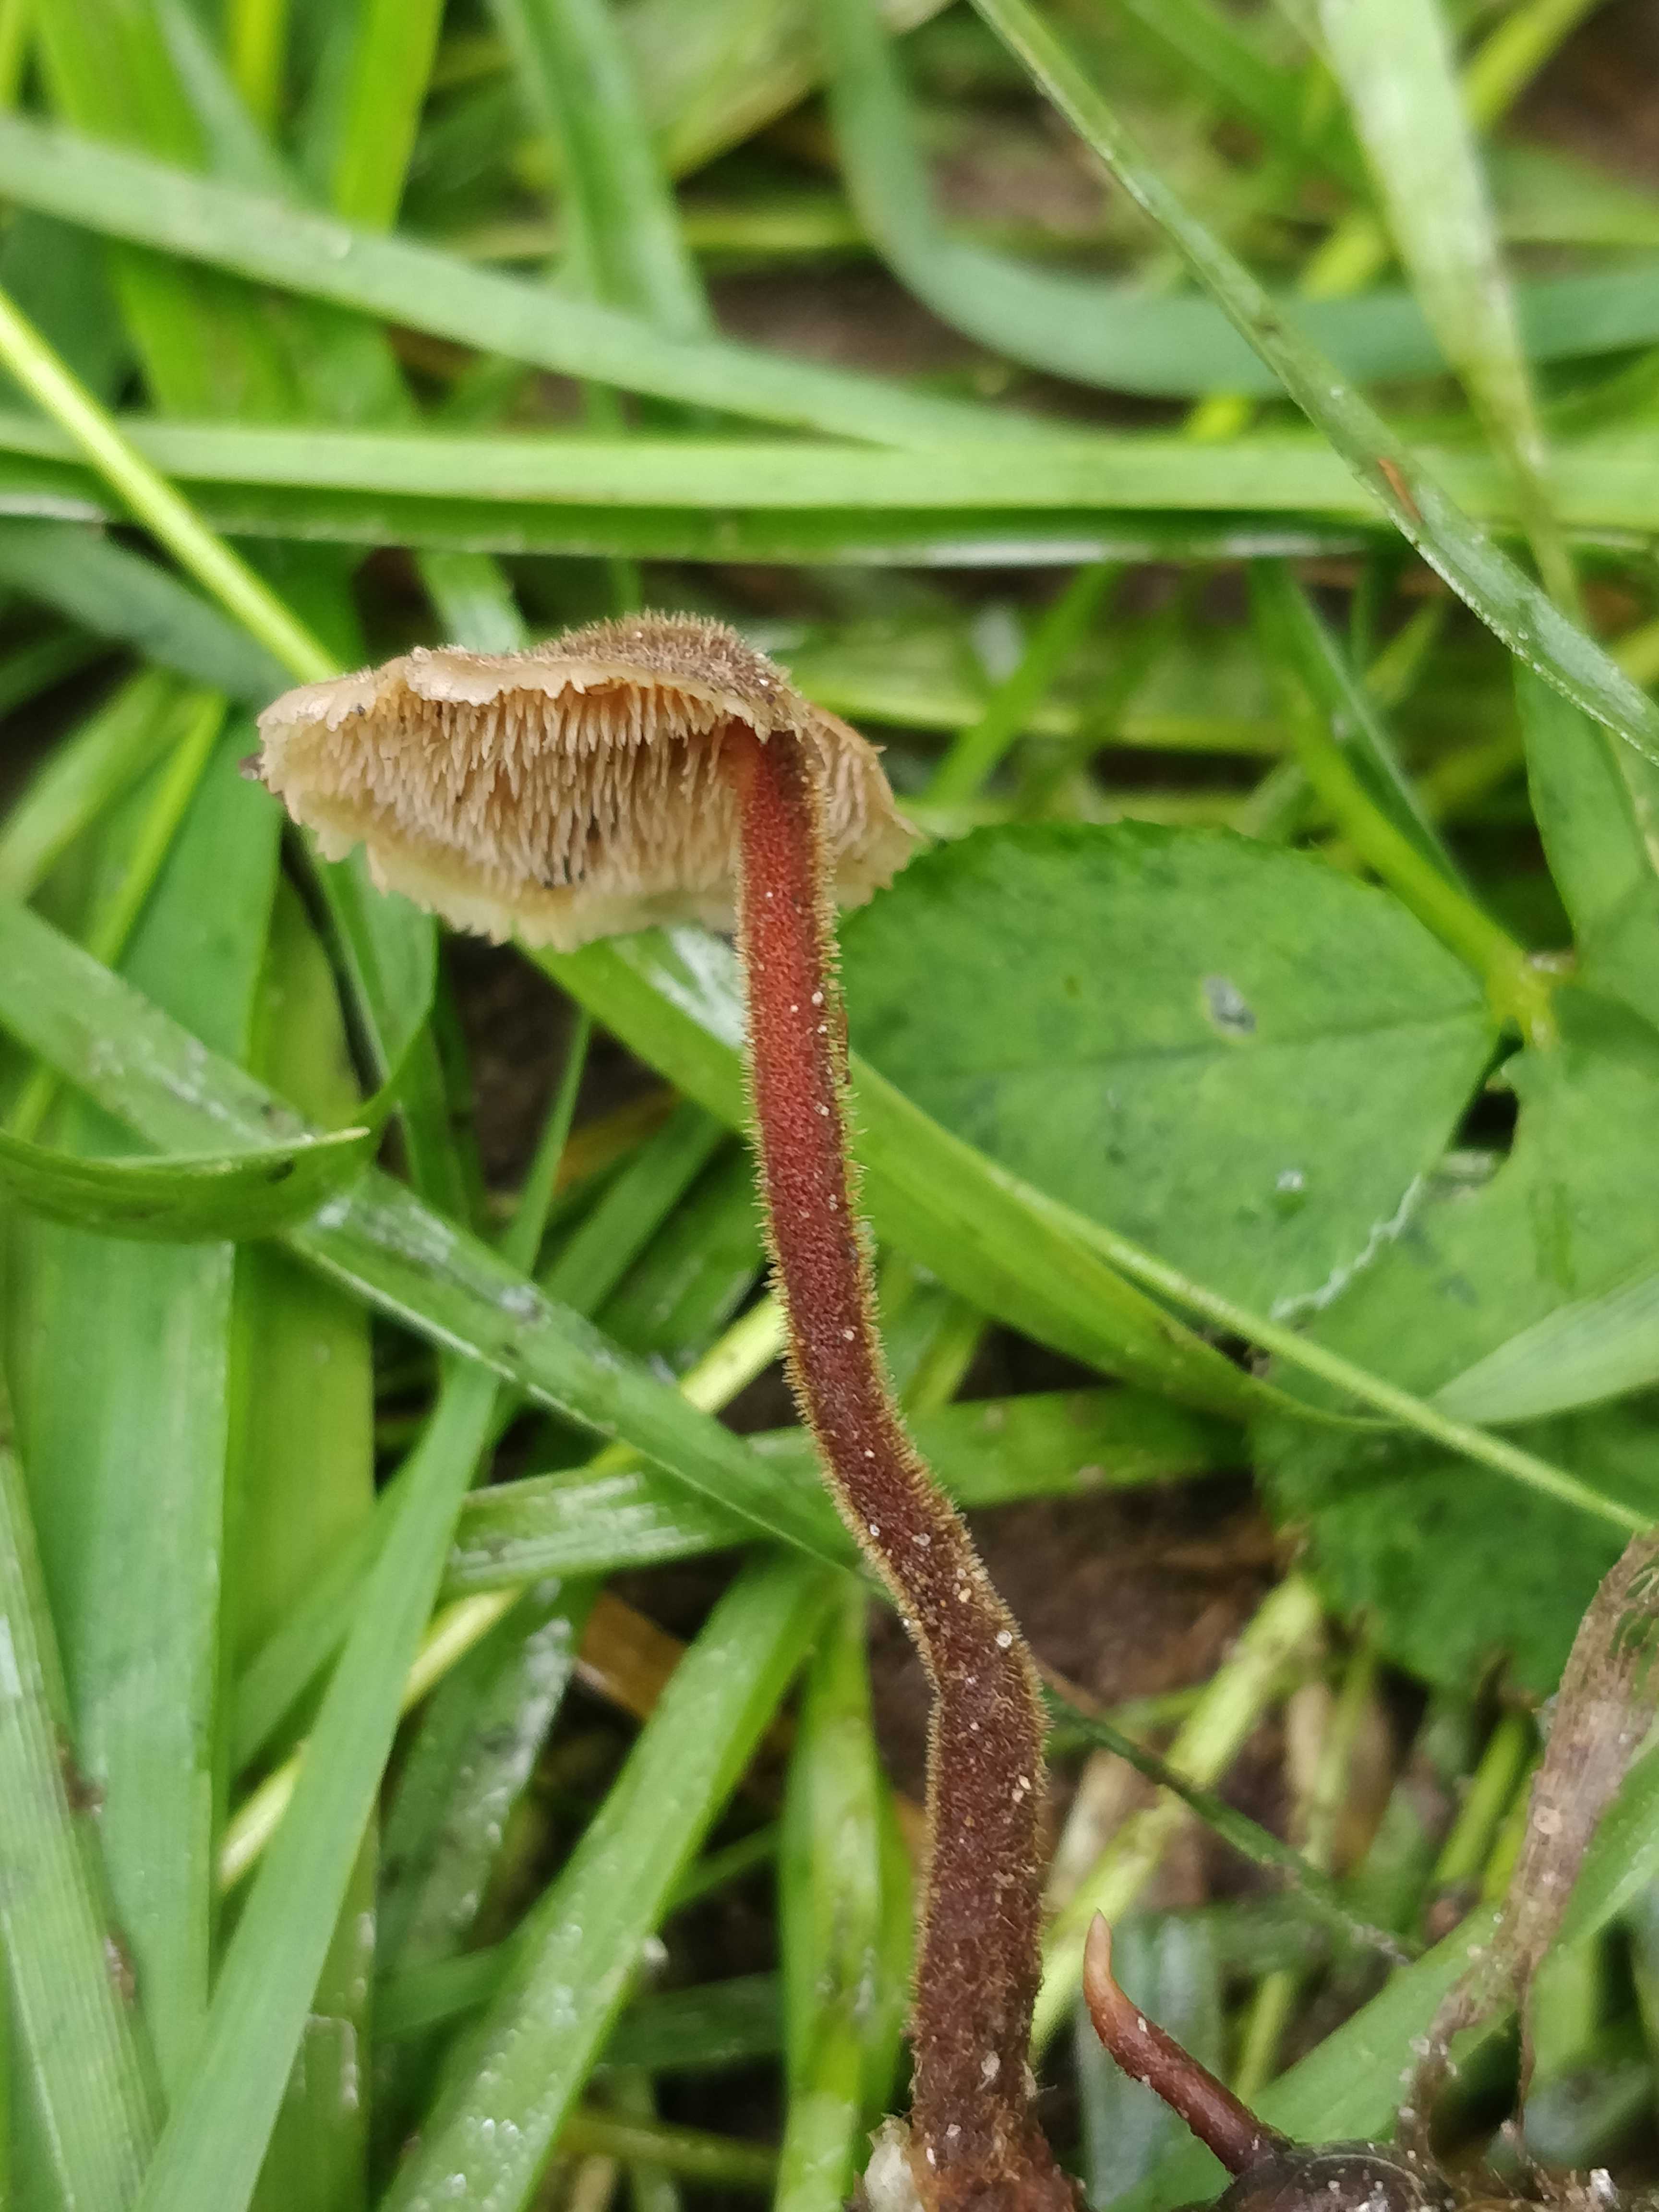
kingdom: Fungi
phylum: Basidiomycota
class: Agaricomycetes
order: Russulales
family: Auriscalpiaceae
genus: Auriscalpium
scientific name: Auriscalpium vulgare
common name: koglepigsvamp
